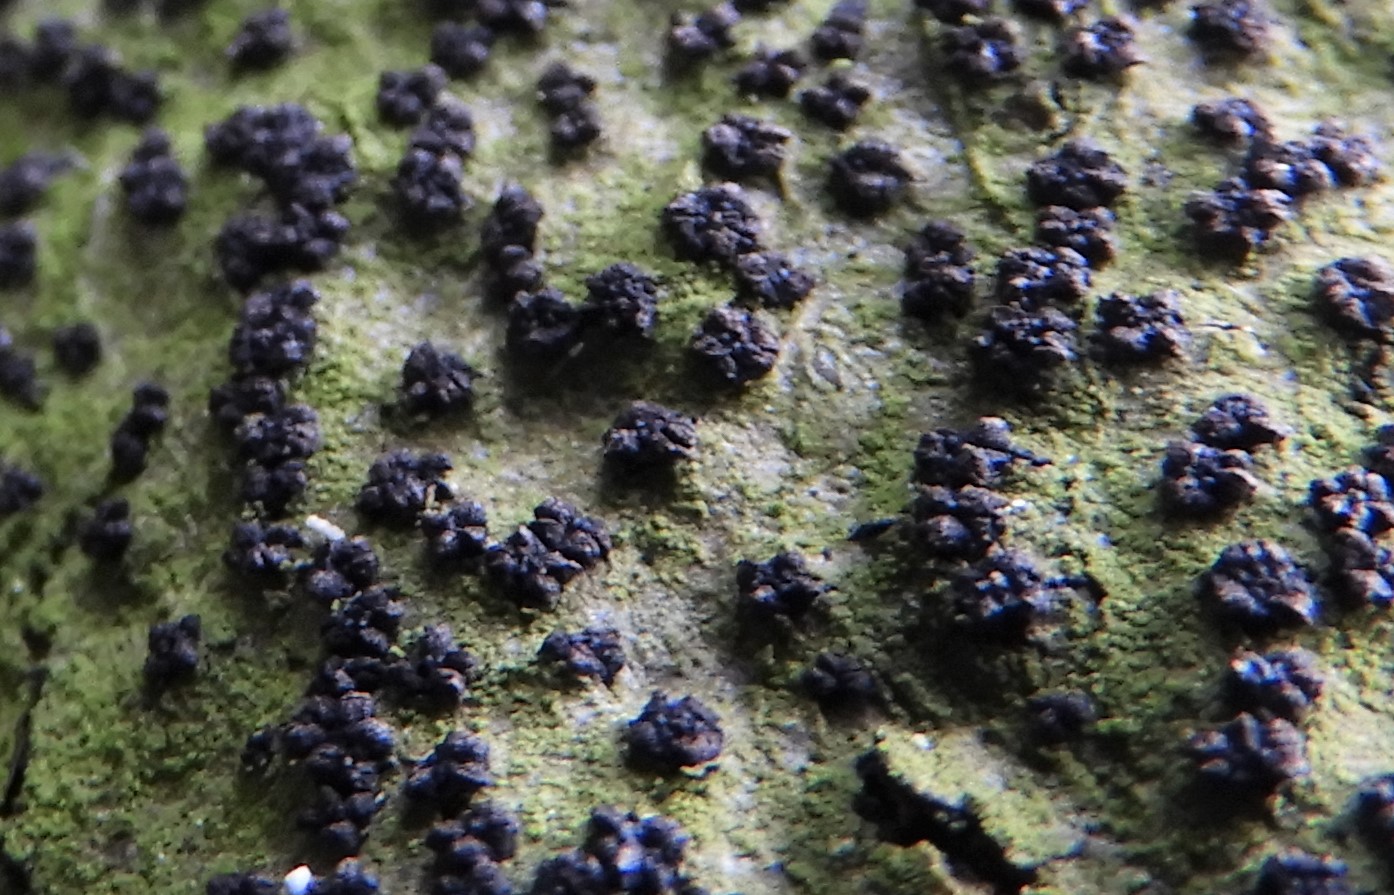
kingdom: Fungi
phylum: Ascomycota
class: Sordariomycetes
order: Xylariales
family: Diatrypaceae
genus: Eutypella
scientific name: Eutypella quaternata
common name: bøge-korsprik
